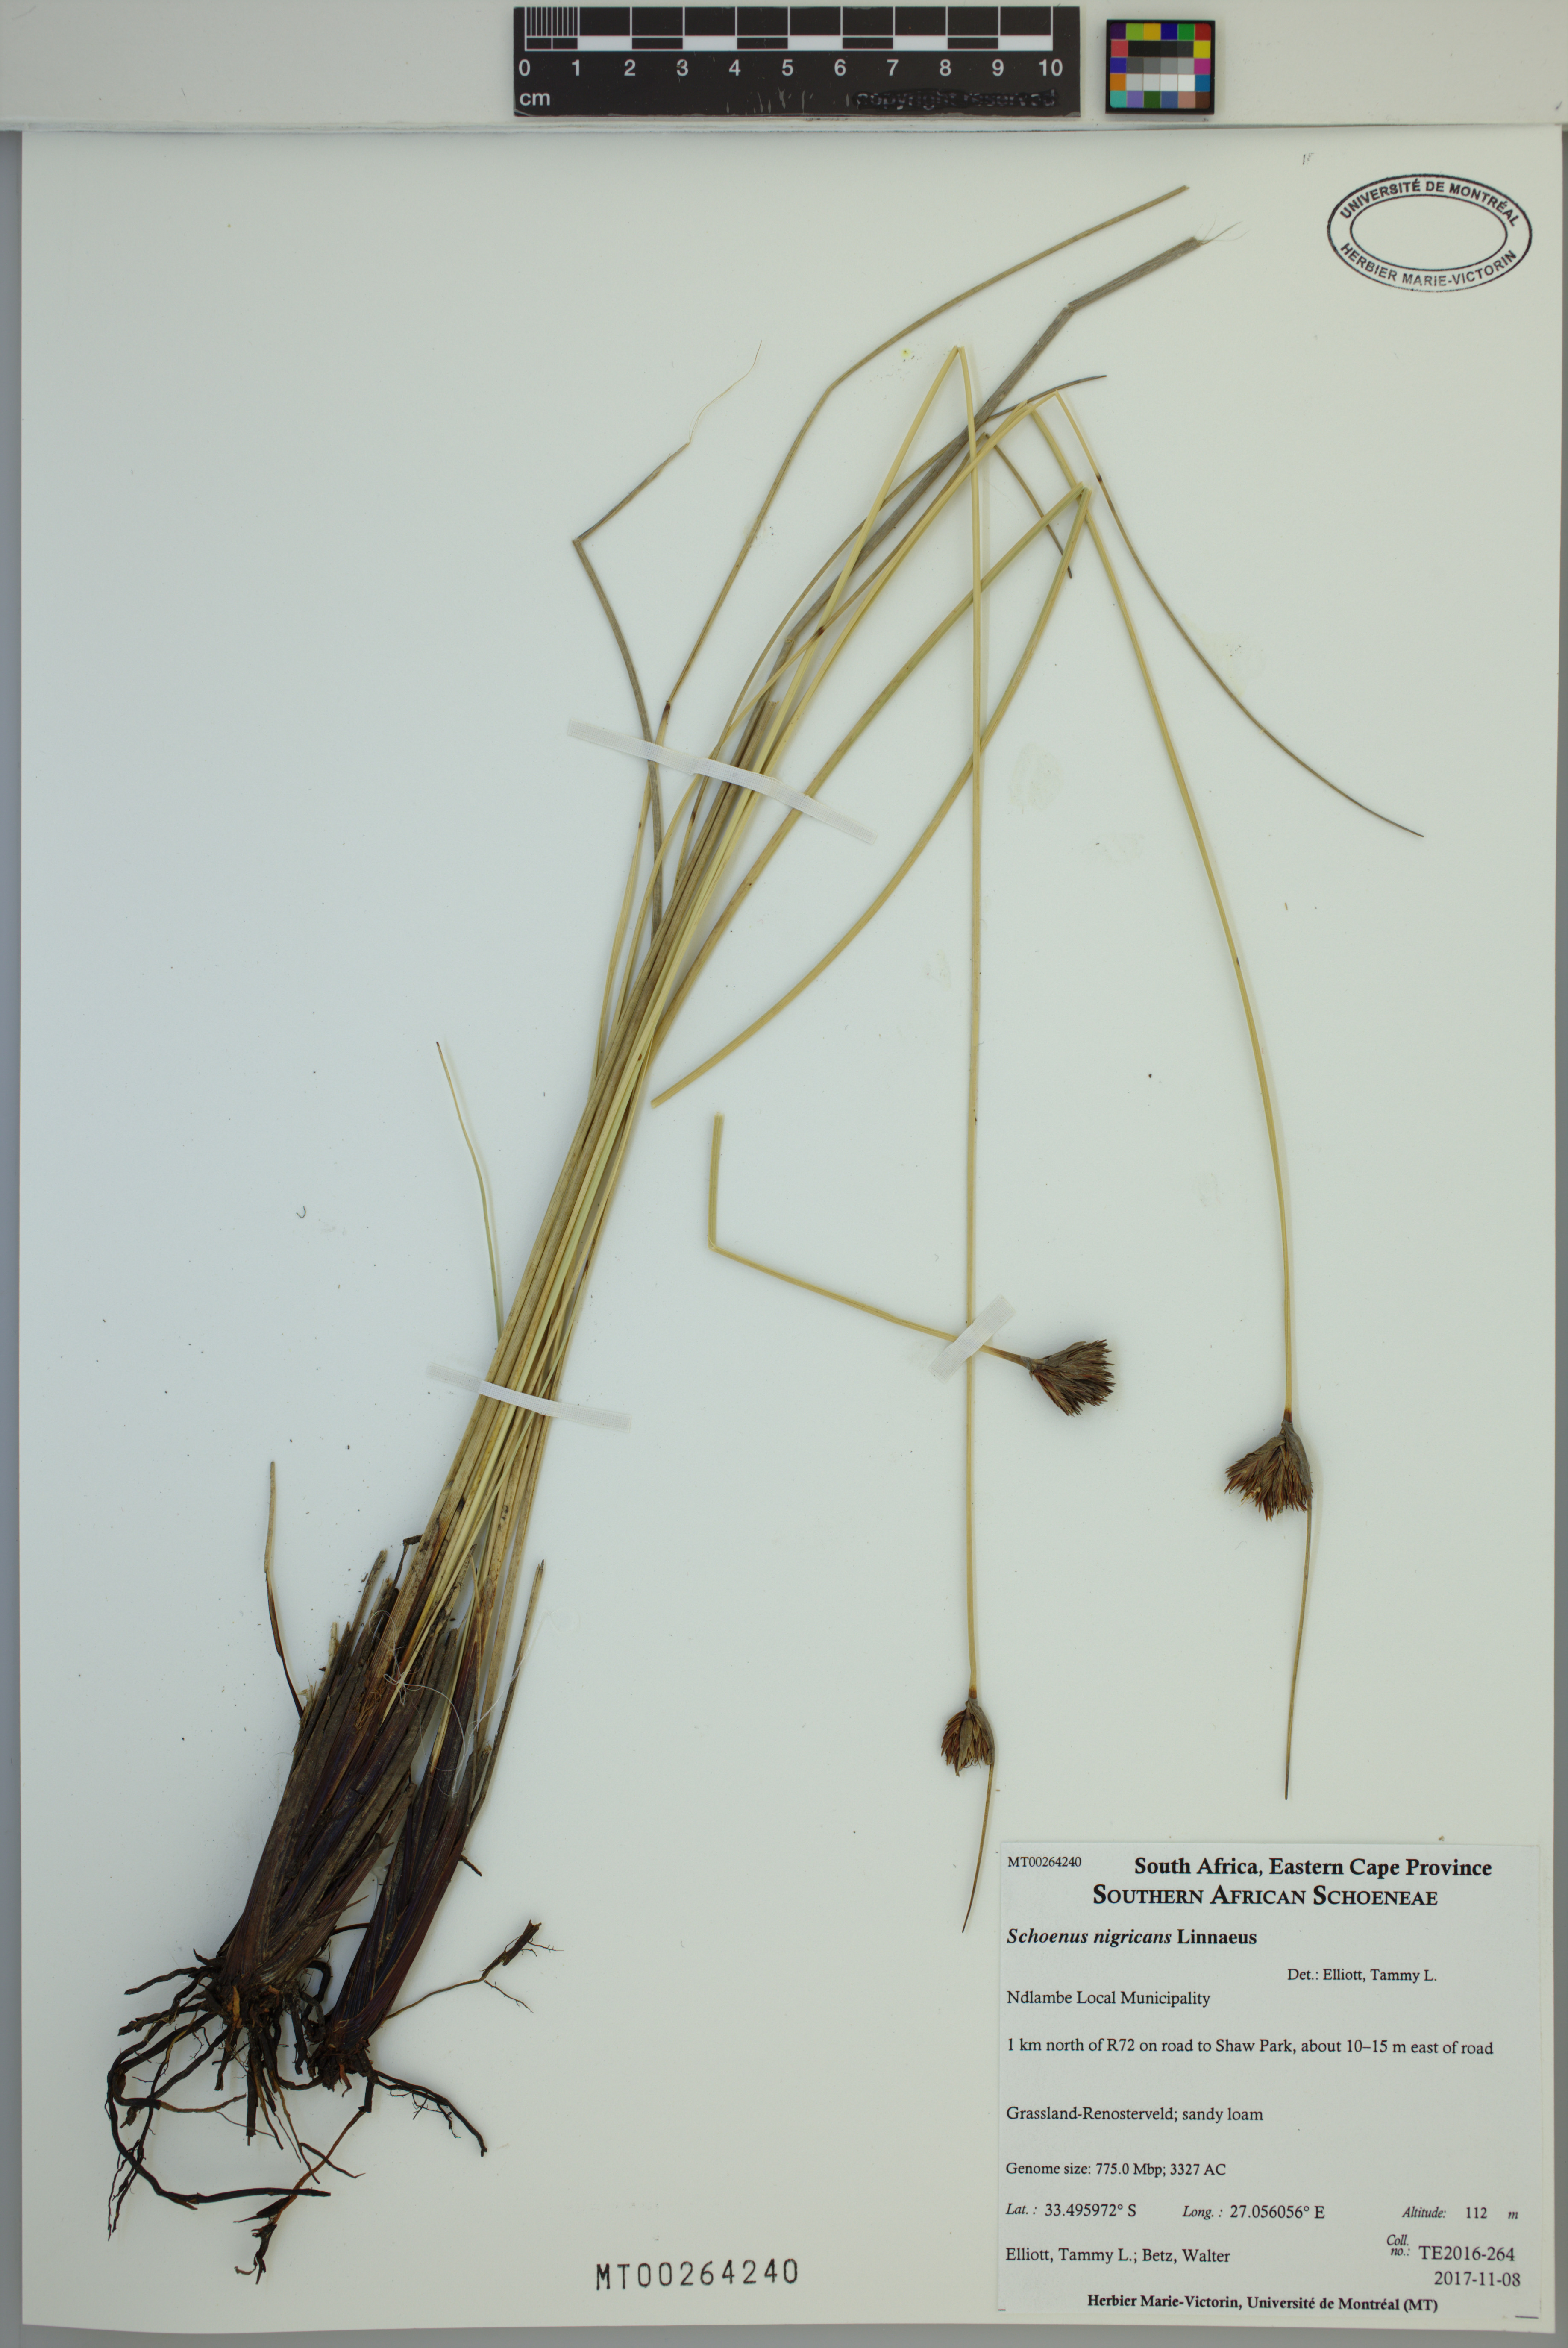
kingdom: Plantae
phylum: Tracheophyta
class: Liliopsida
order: Poales
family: Cyperaceae
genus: Schoenus
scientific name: Schoenus nigricans
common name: Black bog-rush
